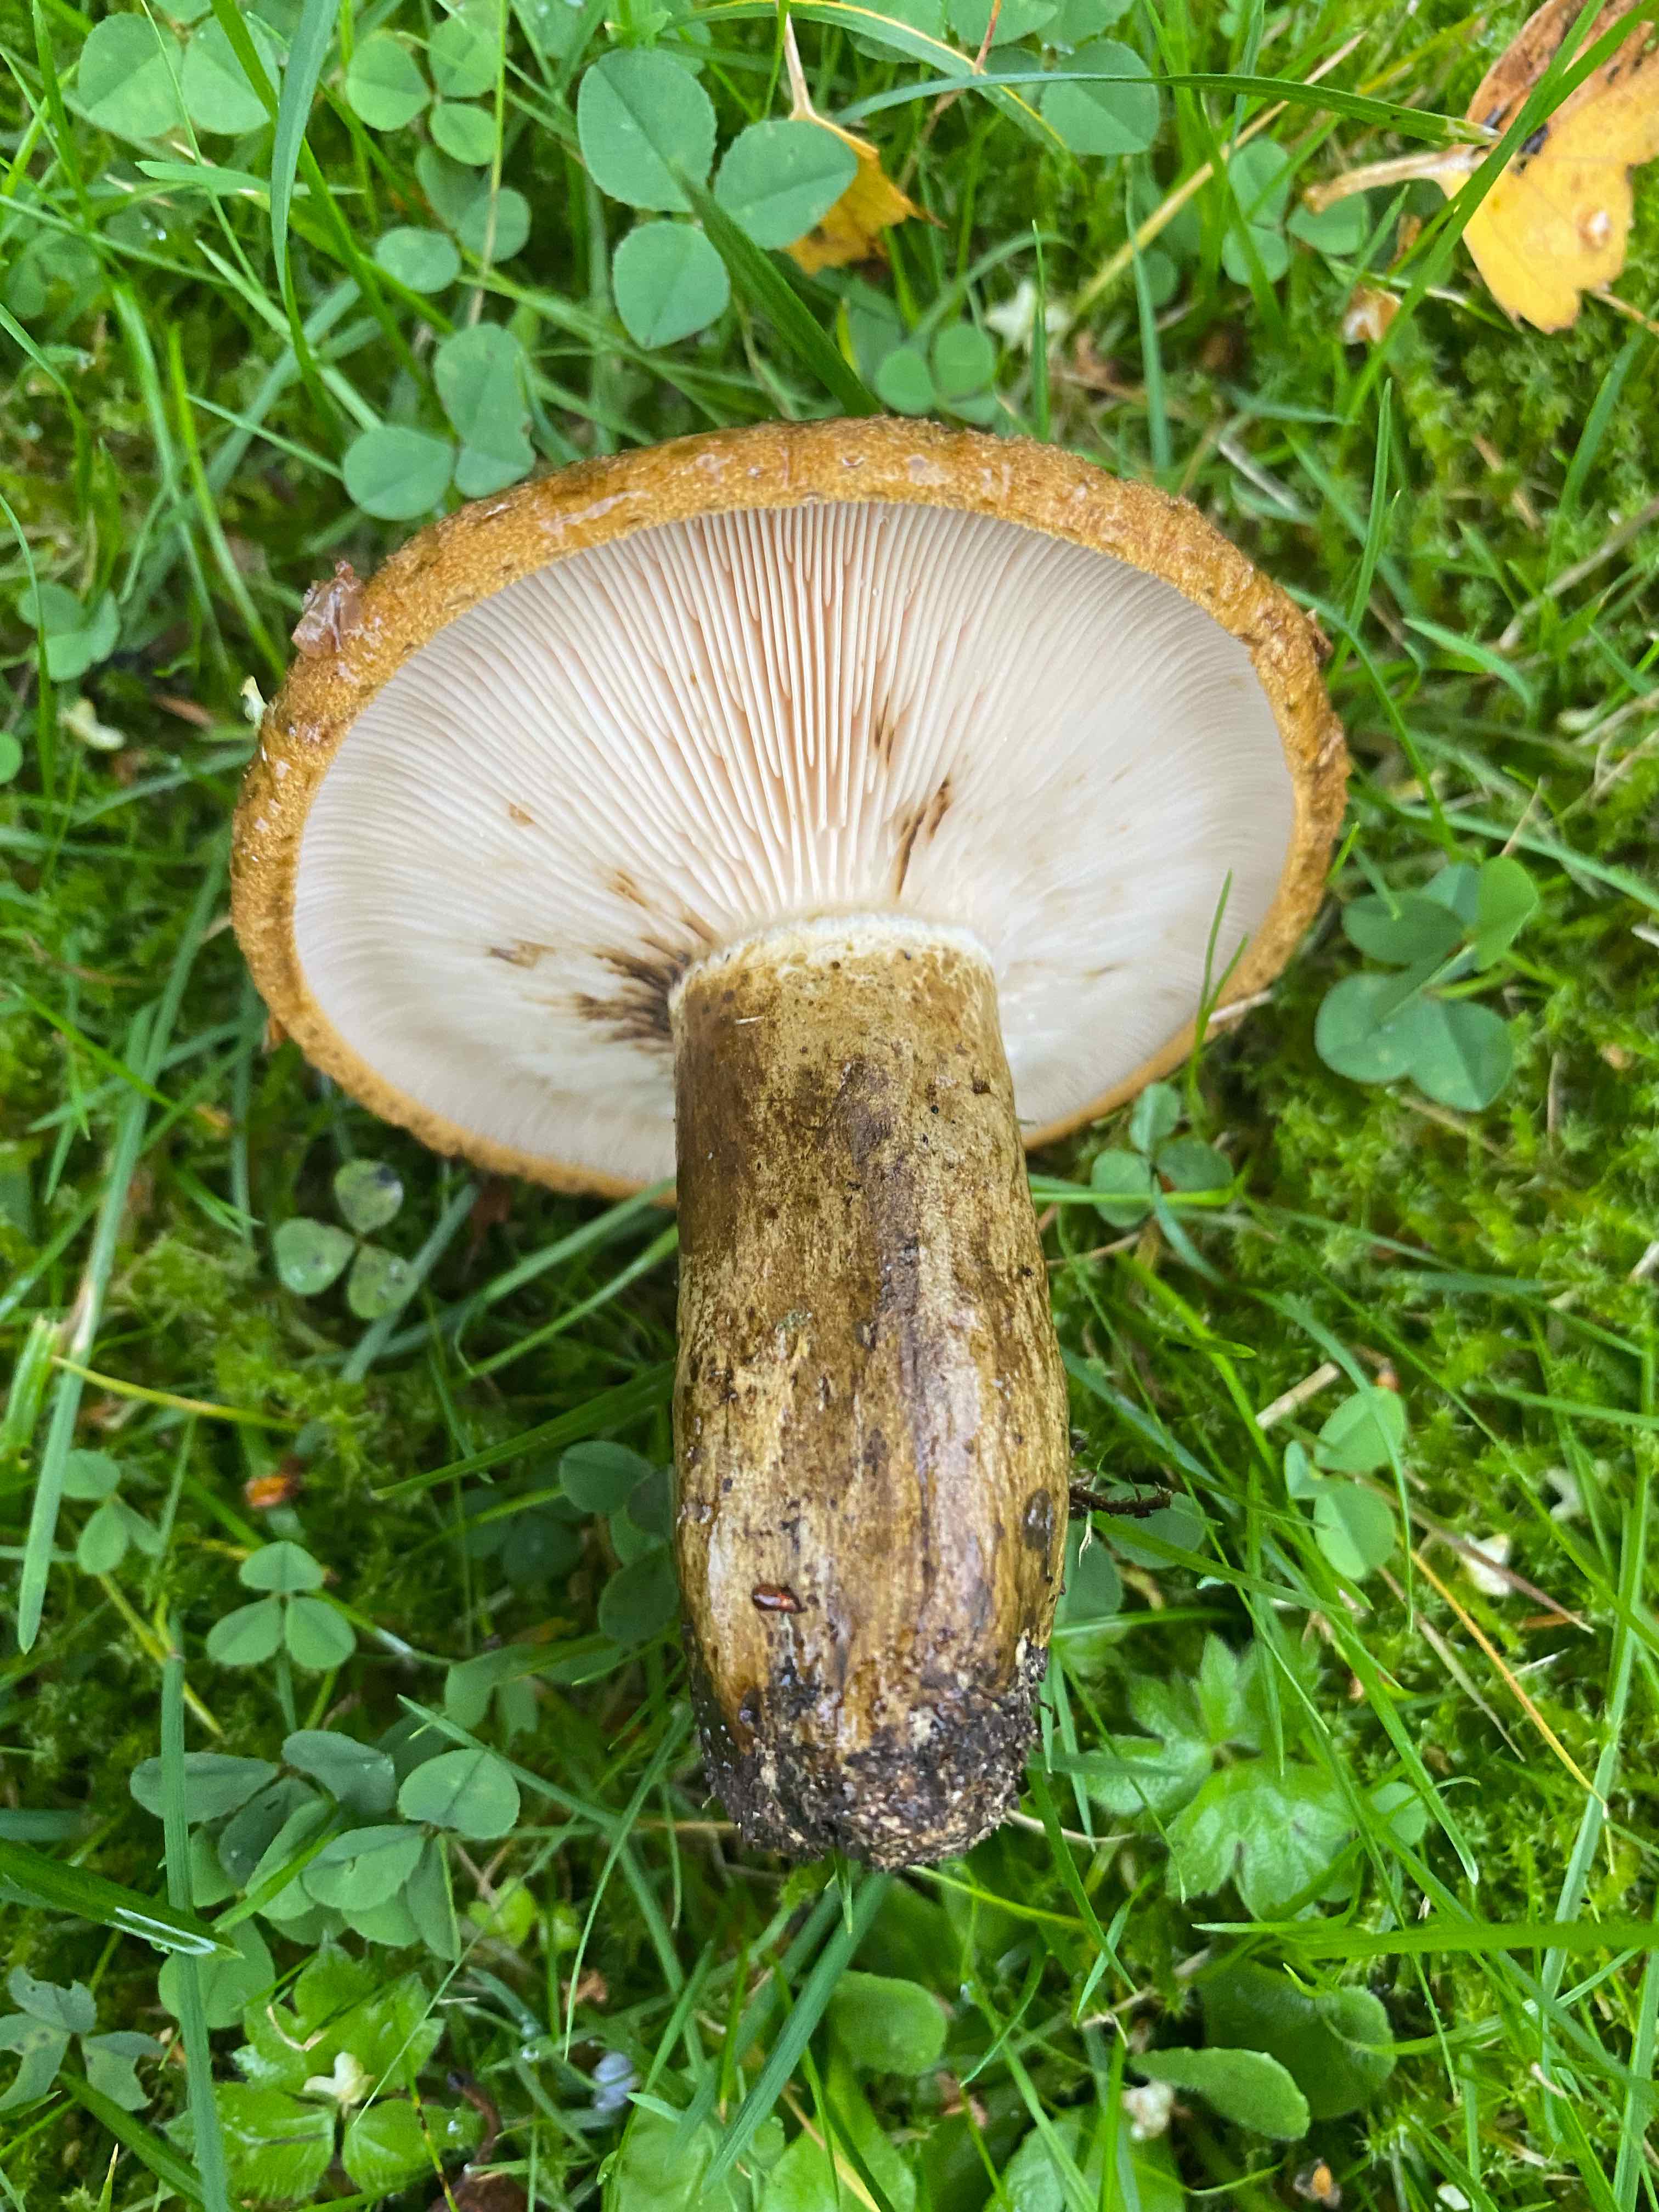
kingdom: Fungi
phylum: Basidiomycota
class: Agaricomycetes
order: Russulales
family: Russulaceae
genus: Lactarius
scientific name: Lactarius necator
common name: manddraber-mælkehat
